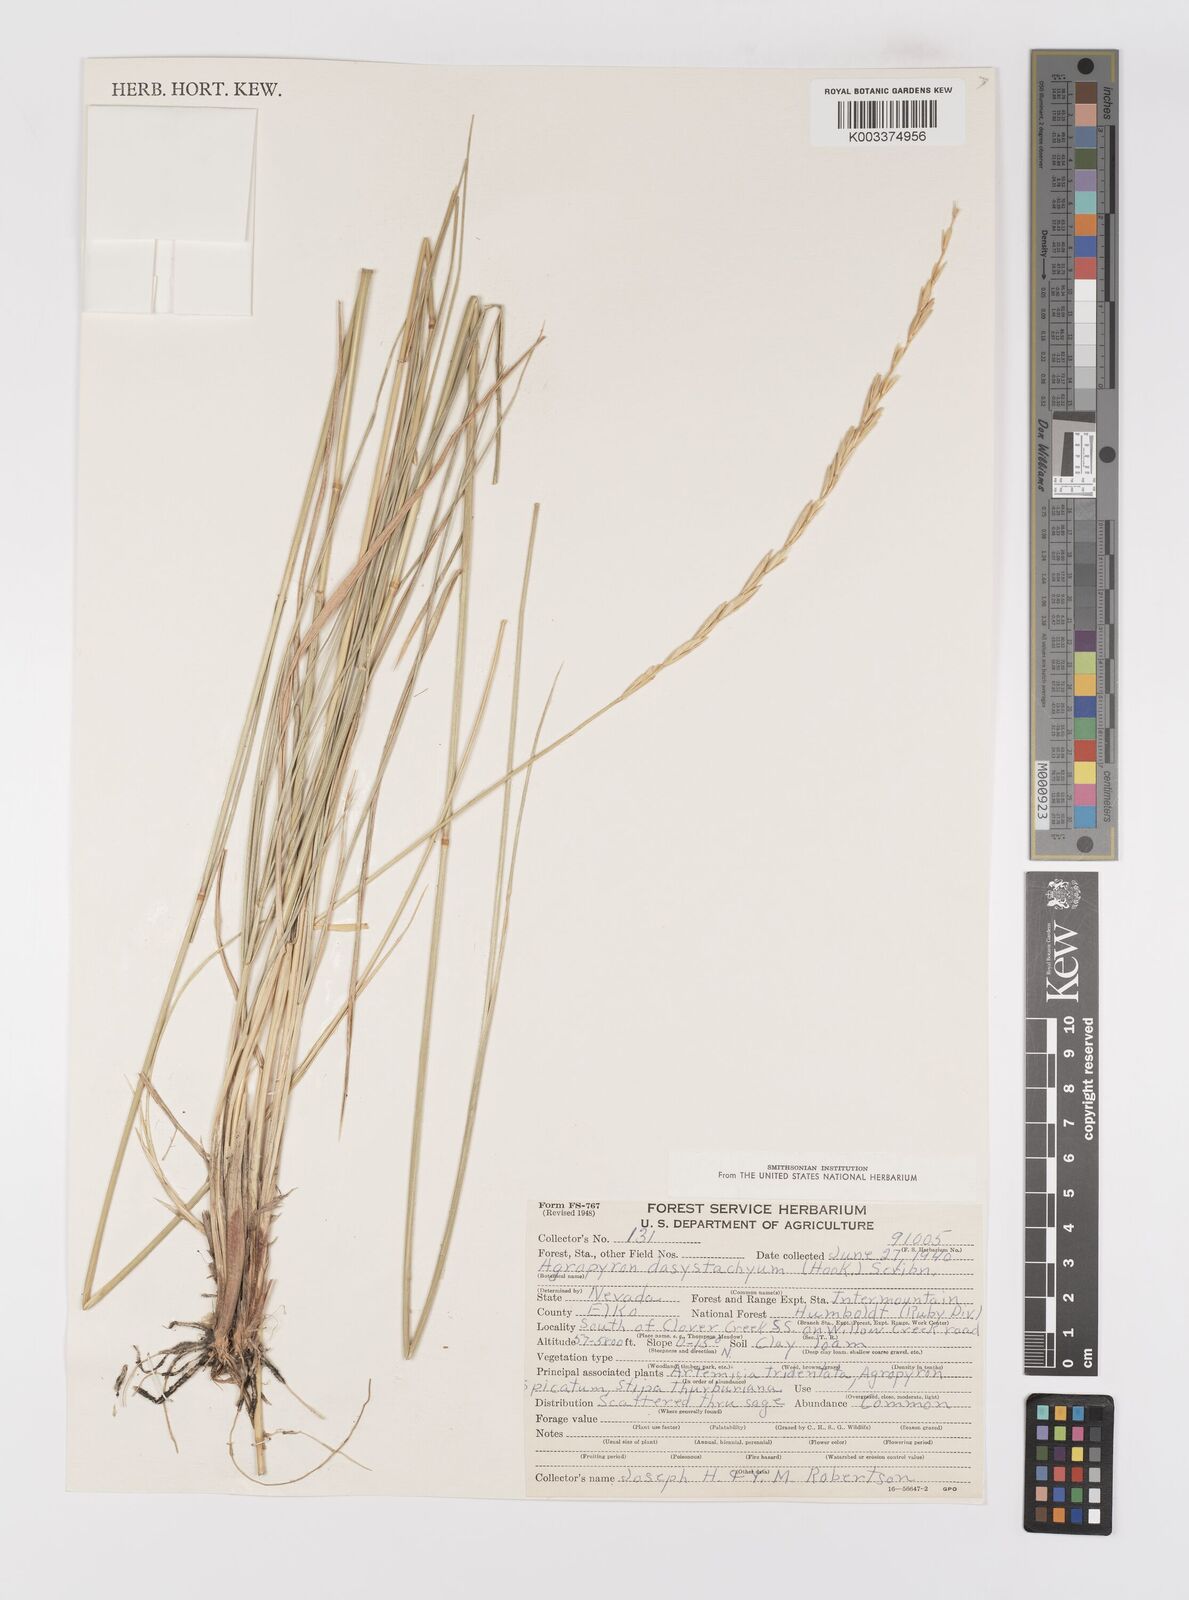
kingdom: Plantae
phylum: Tracheophyta
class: Liliopsida
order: Poales
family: Poaceae
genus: Elymus
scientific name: Elymus lanceolatus
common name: Thick-spike wheatgrass
